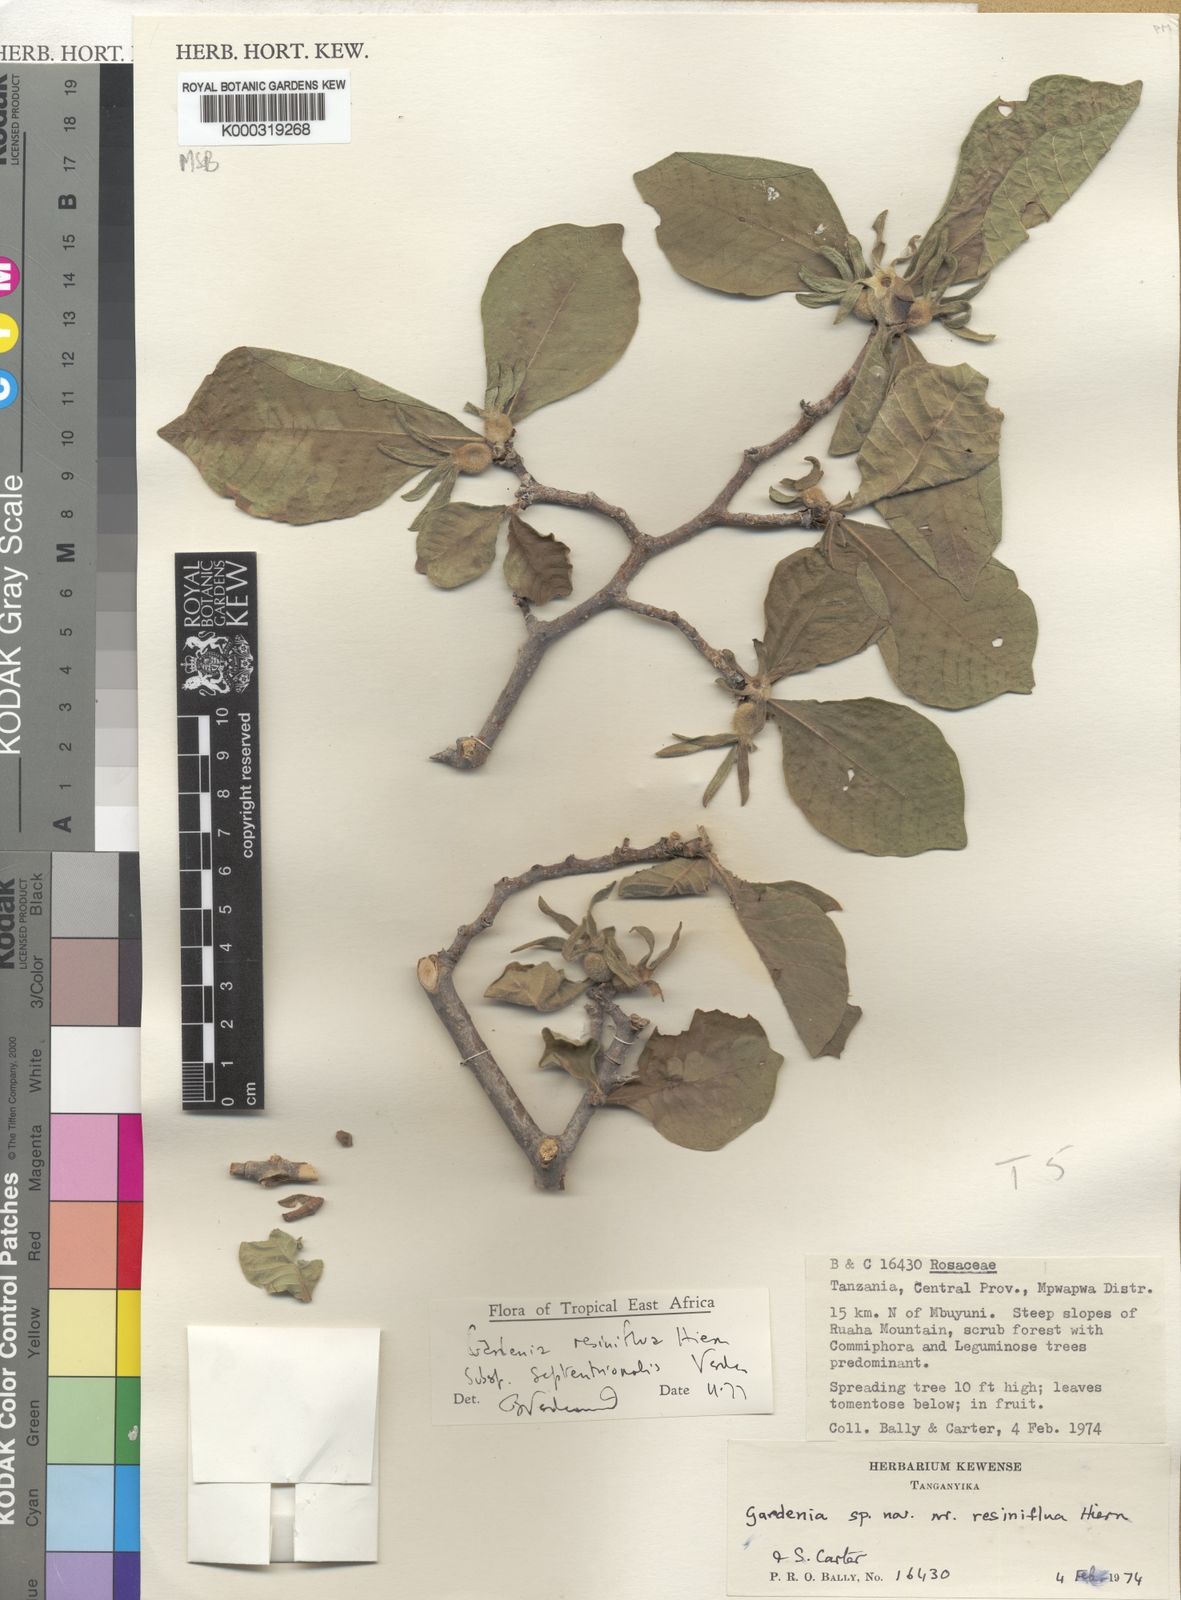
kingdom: Plantae
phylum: Tracheophyta
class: Magnoliopsida
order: Gentianales
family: Rubiaceae
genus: Gardenia
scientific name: Gardenia resiniflua
